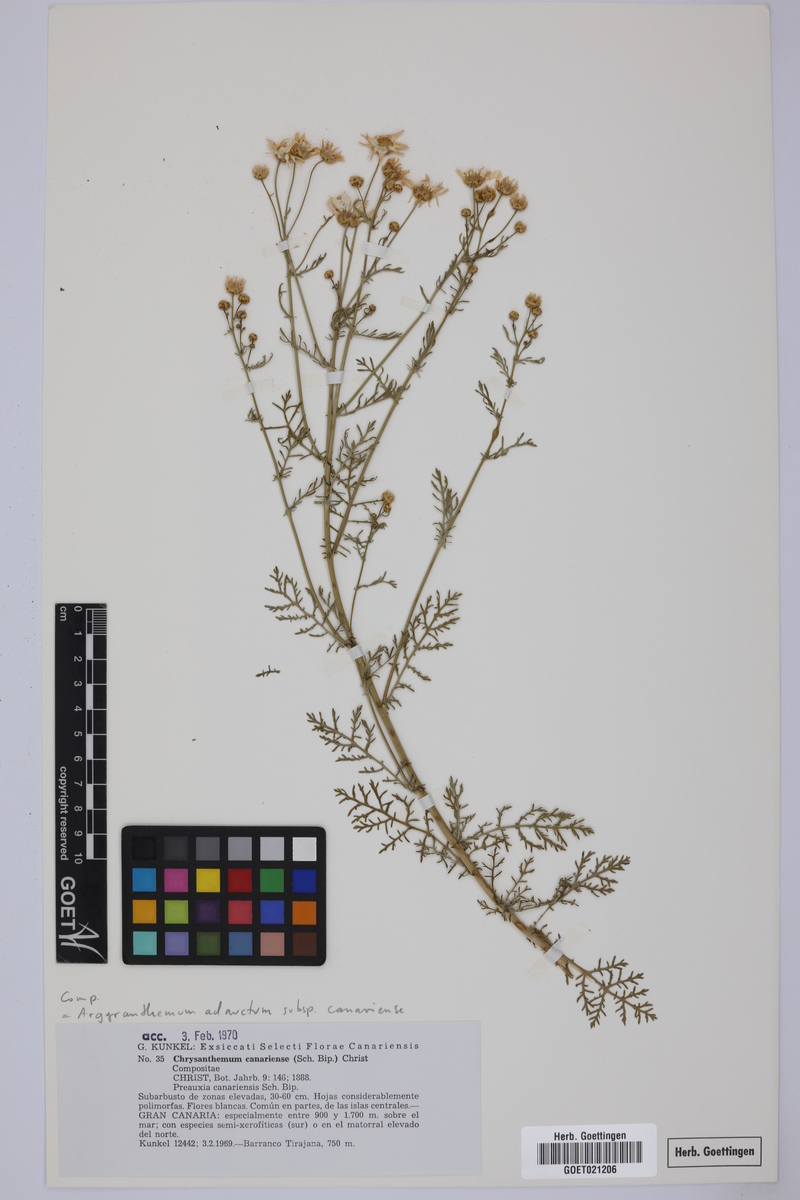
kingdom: Plantae
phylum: Tracheophyta
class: Magnoliopsida
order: Asterales
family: Asteraceae
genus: Argyranthemum
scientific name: Argyranthemum adauctum
